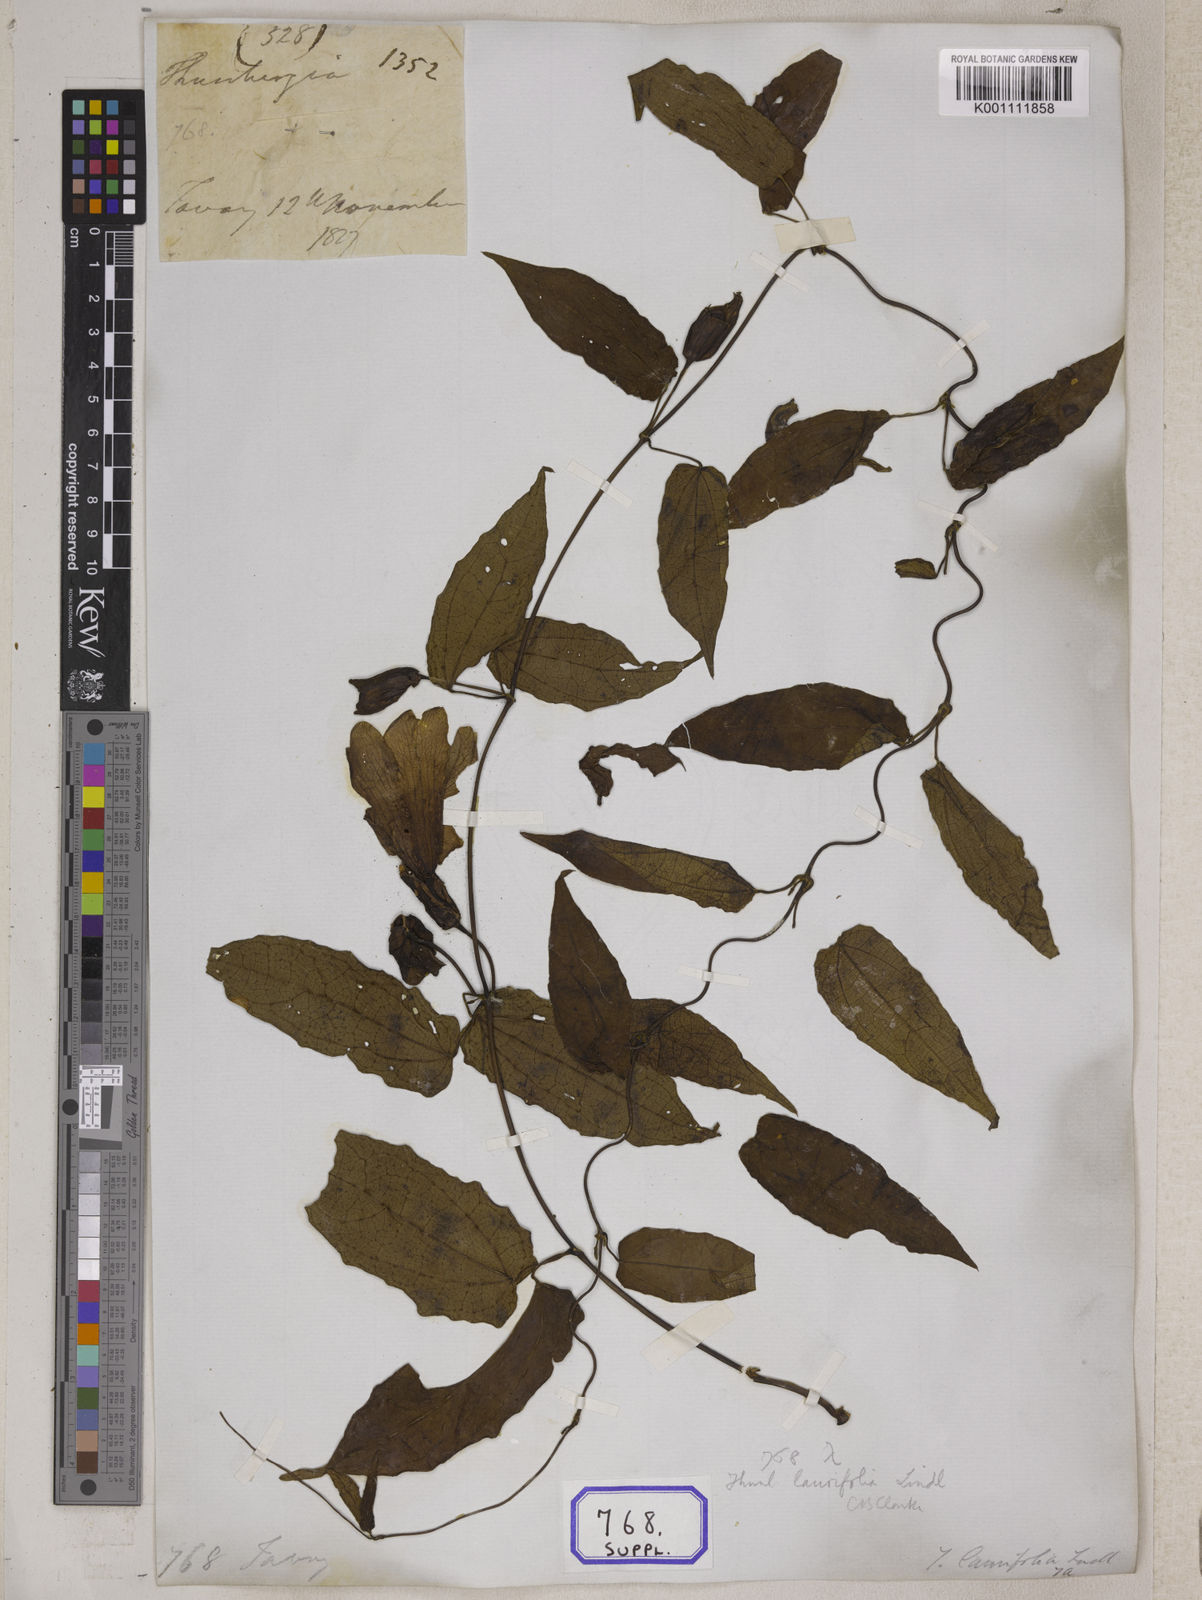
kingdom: Plantae
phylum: Tracheophyta
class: Magnoliopsida
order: Lamiales
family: Acanthaceae
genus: Thunbergia
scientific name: Thunbergia grandiflora
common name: Bengal trumpet
